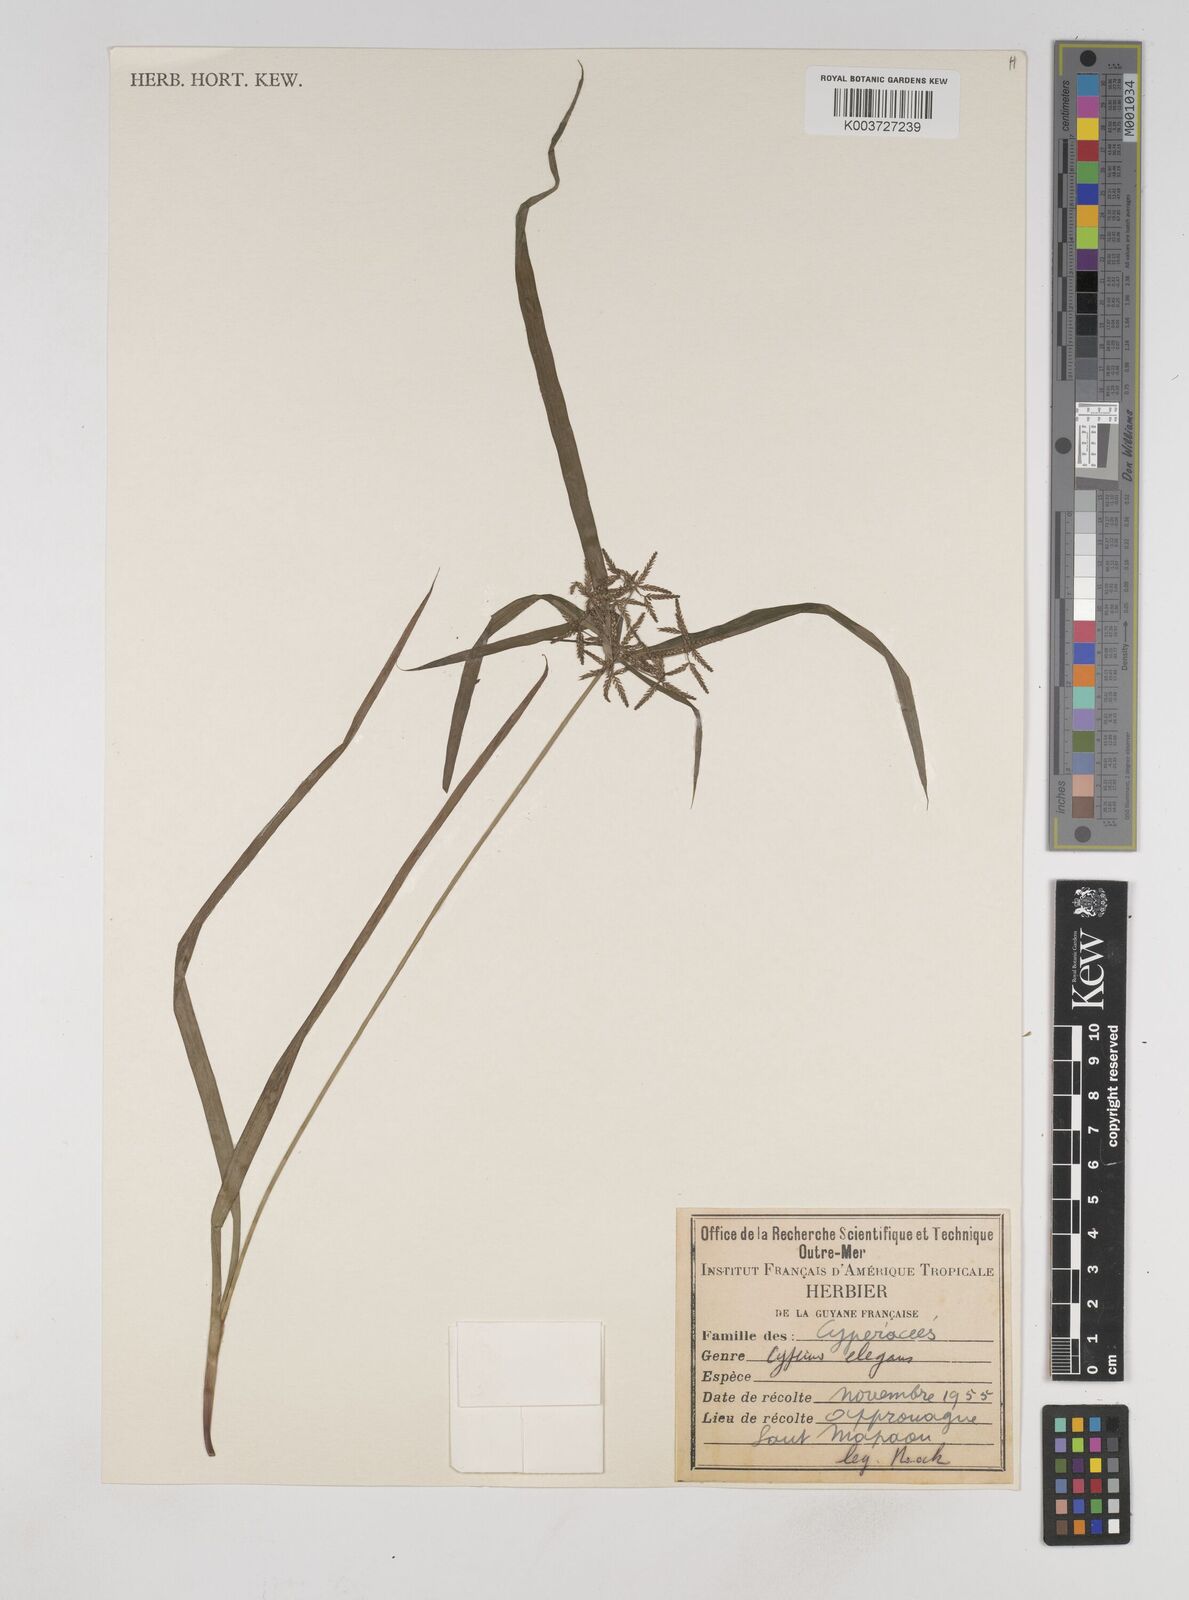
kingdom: Plantae
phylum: Tracheophyta
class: Liliopsida
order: Poales
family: Cyperaceae
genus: Cyperus
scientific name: Cyperus elegans
